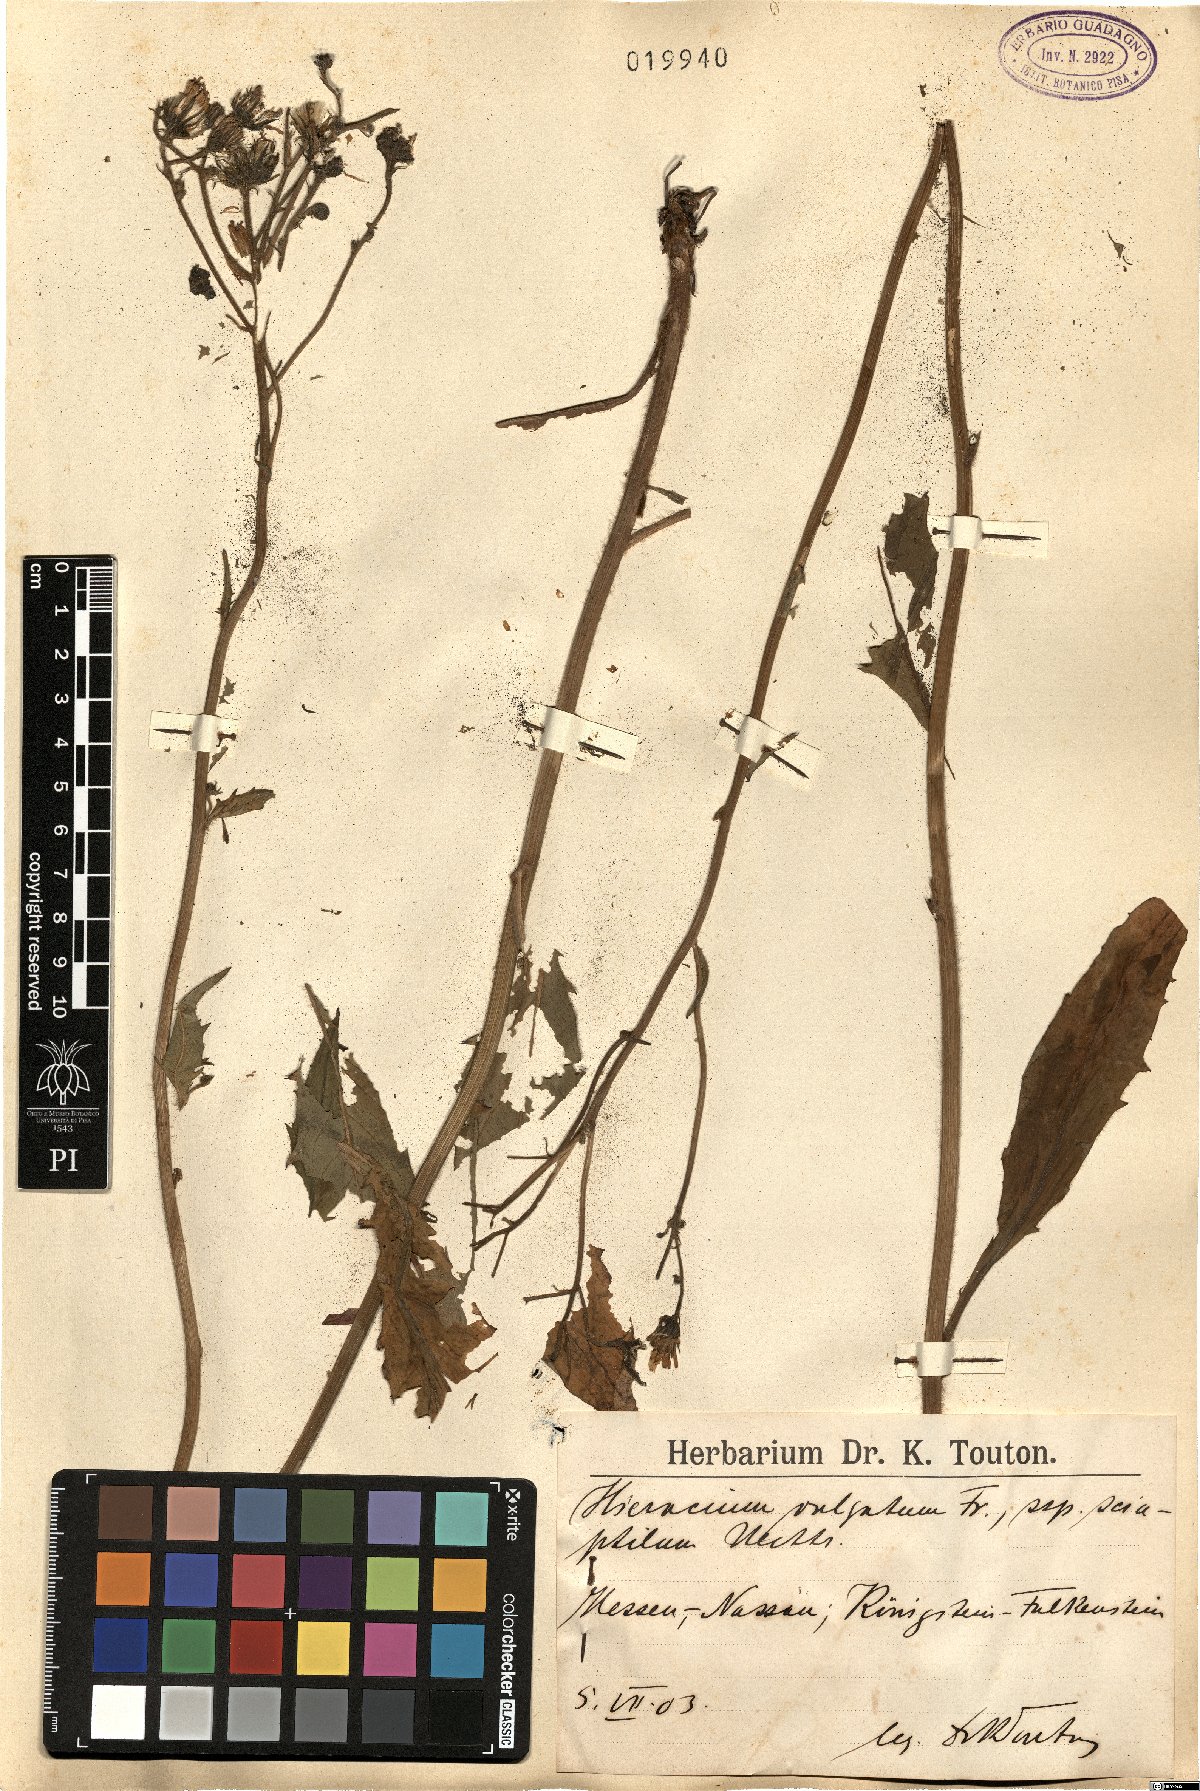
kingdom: Plantae
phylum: Tracheophyta
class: Magnoliopsida
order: Asterales
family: Asteraceae
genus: Hieracium
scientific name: Hieracium lachenalii
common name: Common hawkweed
